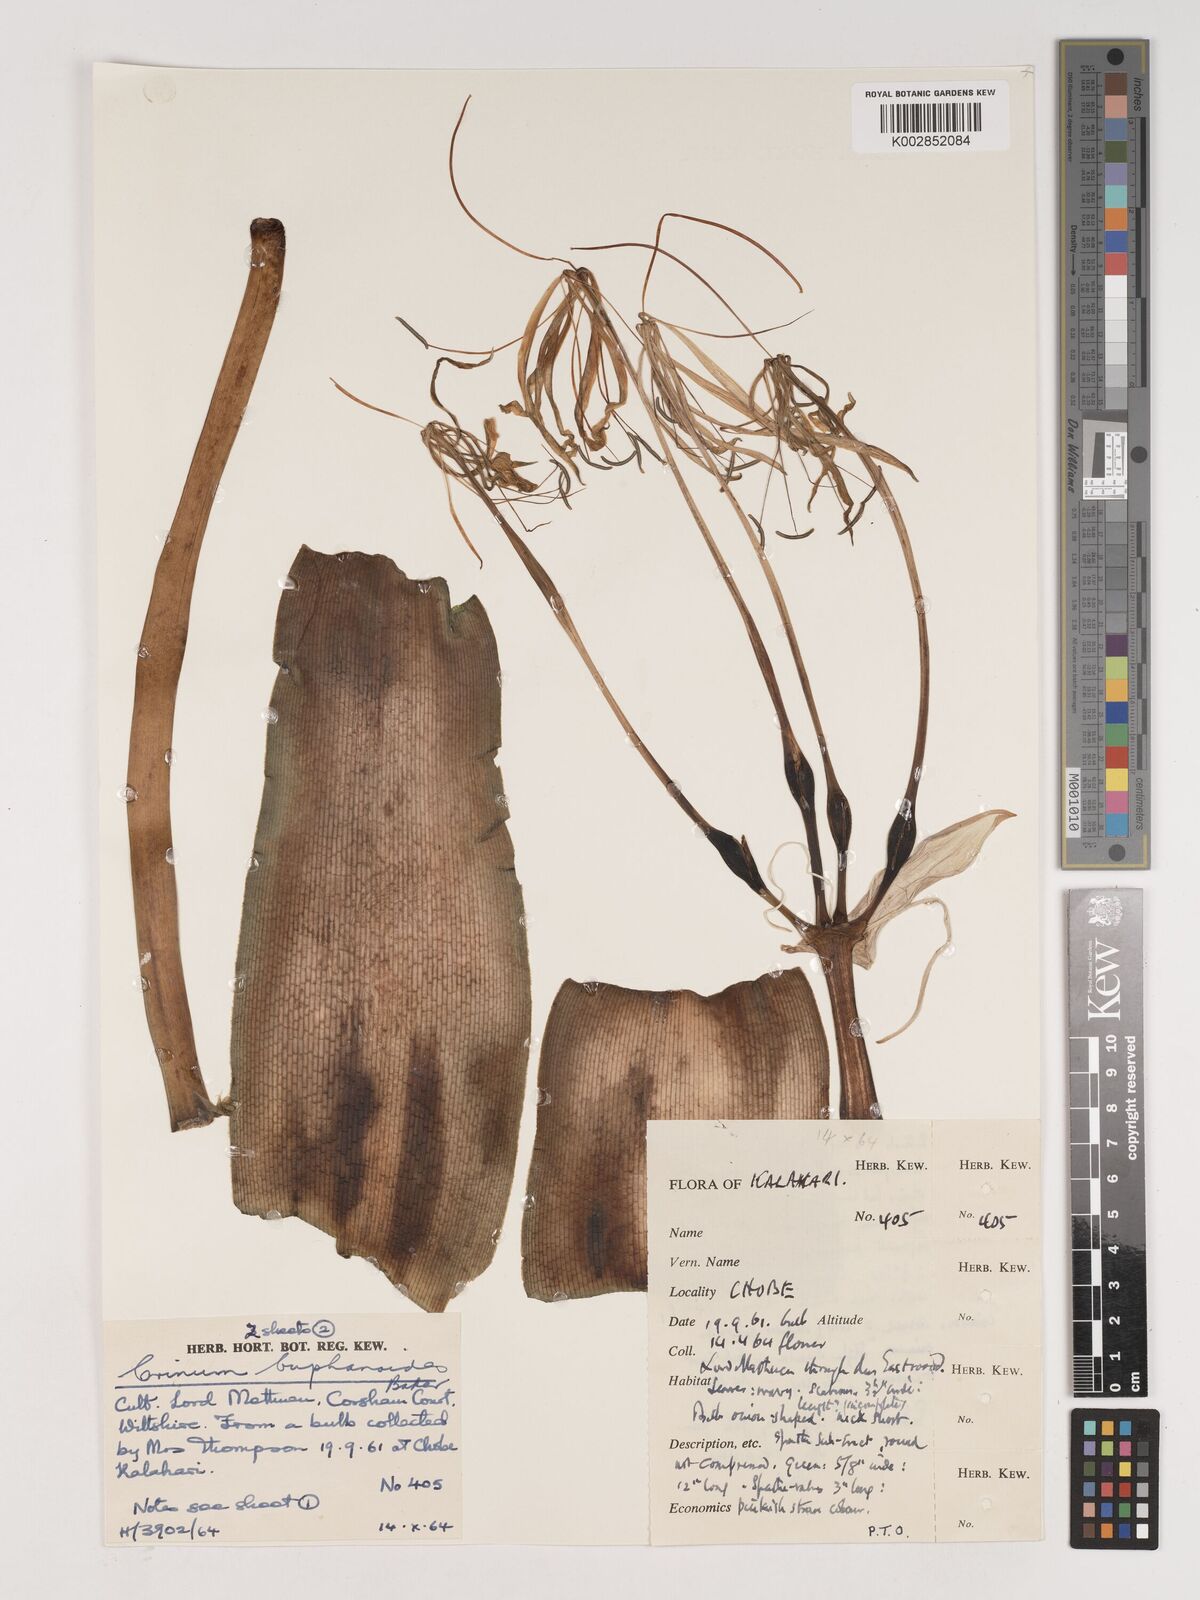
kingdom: Plantae
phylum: Tracheophyta
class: Liliopsida
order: Asparagales
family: Amaryllidaceae
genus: Crinum
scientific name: Crinum buphanoides
